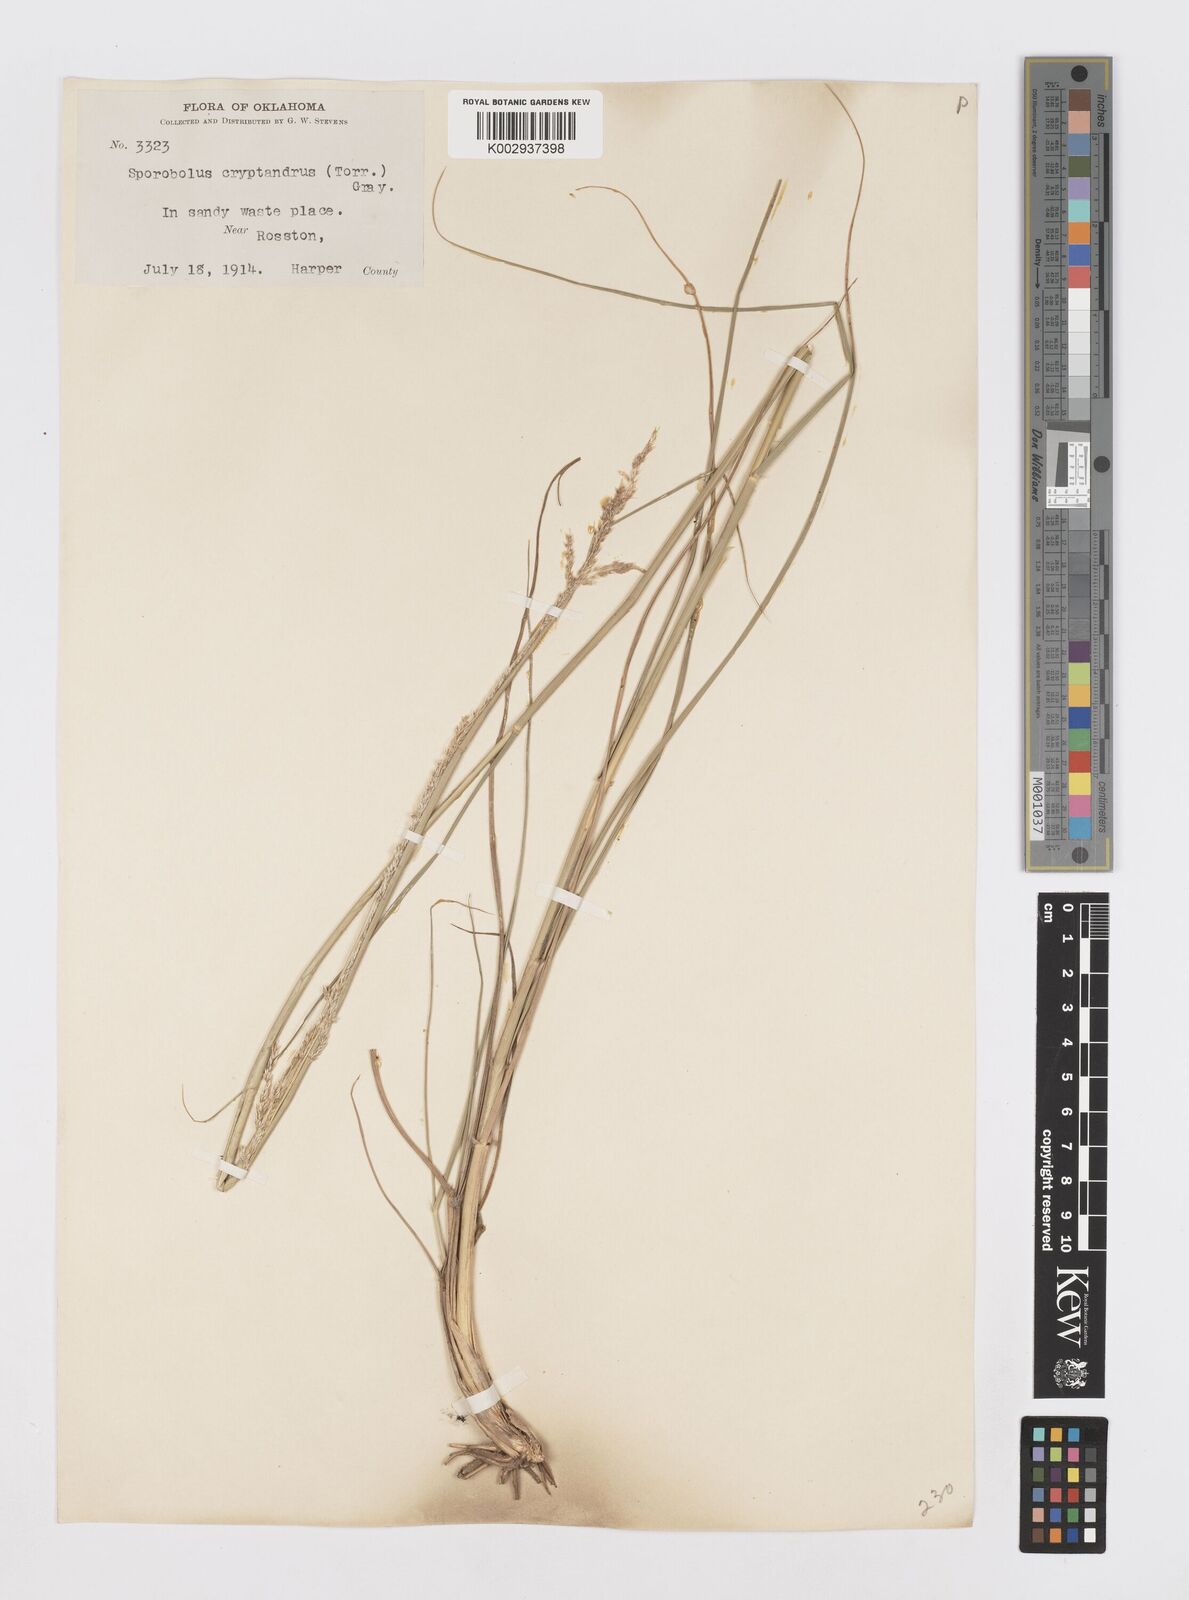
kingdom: Plantae
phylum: Tracheophyta
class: Liliopsida
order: Poales
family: Poaceae
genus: Sporobolus
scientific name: Sporobolus cryptandrus
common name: Sand dropseed
